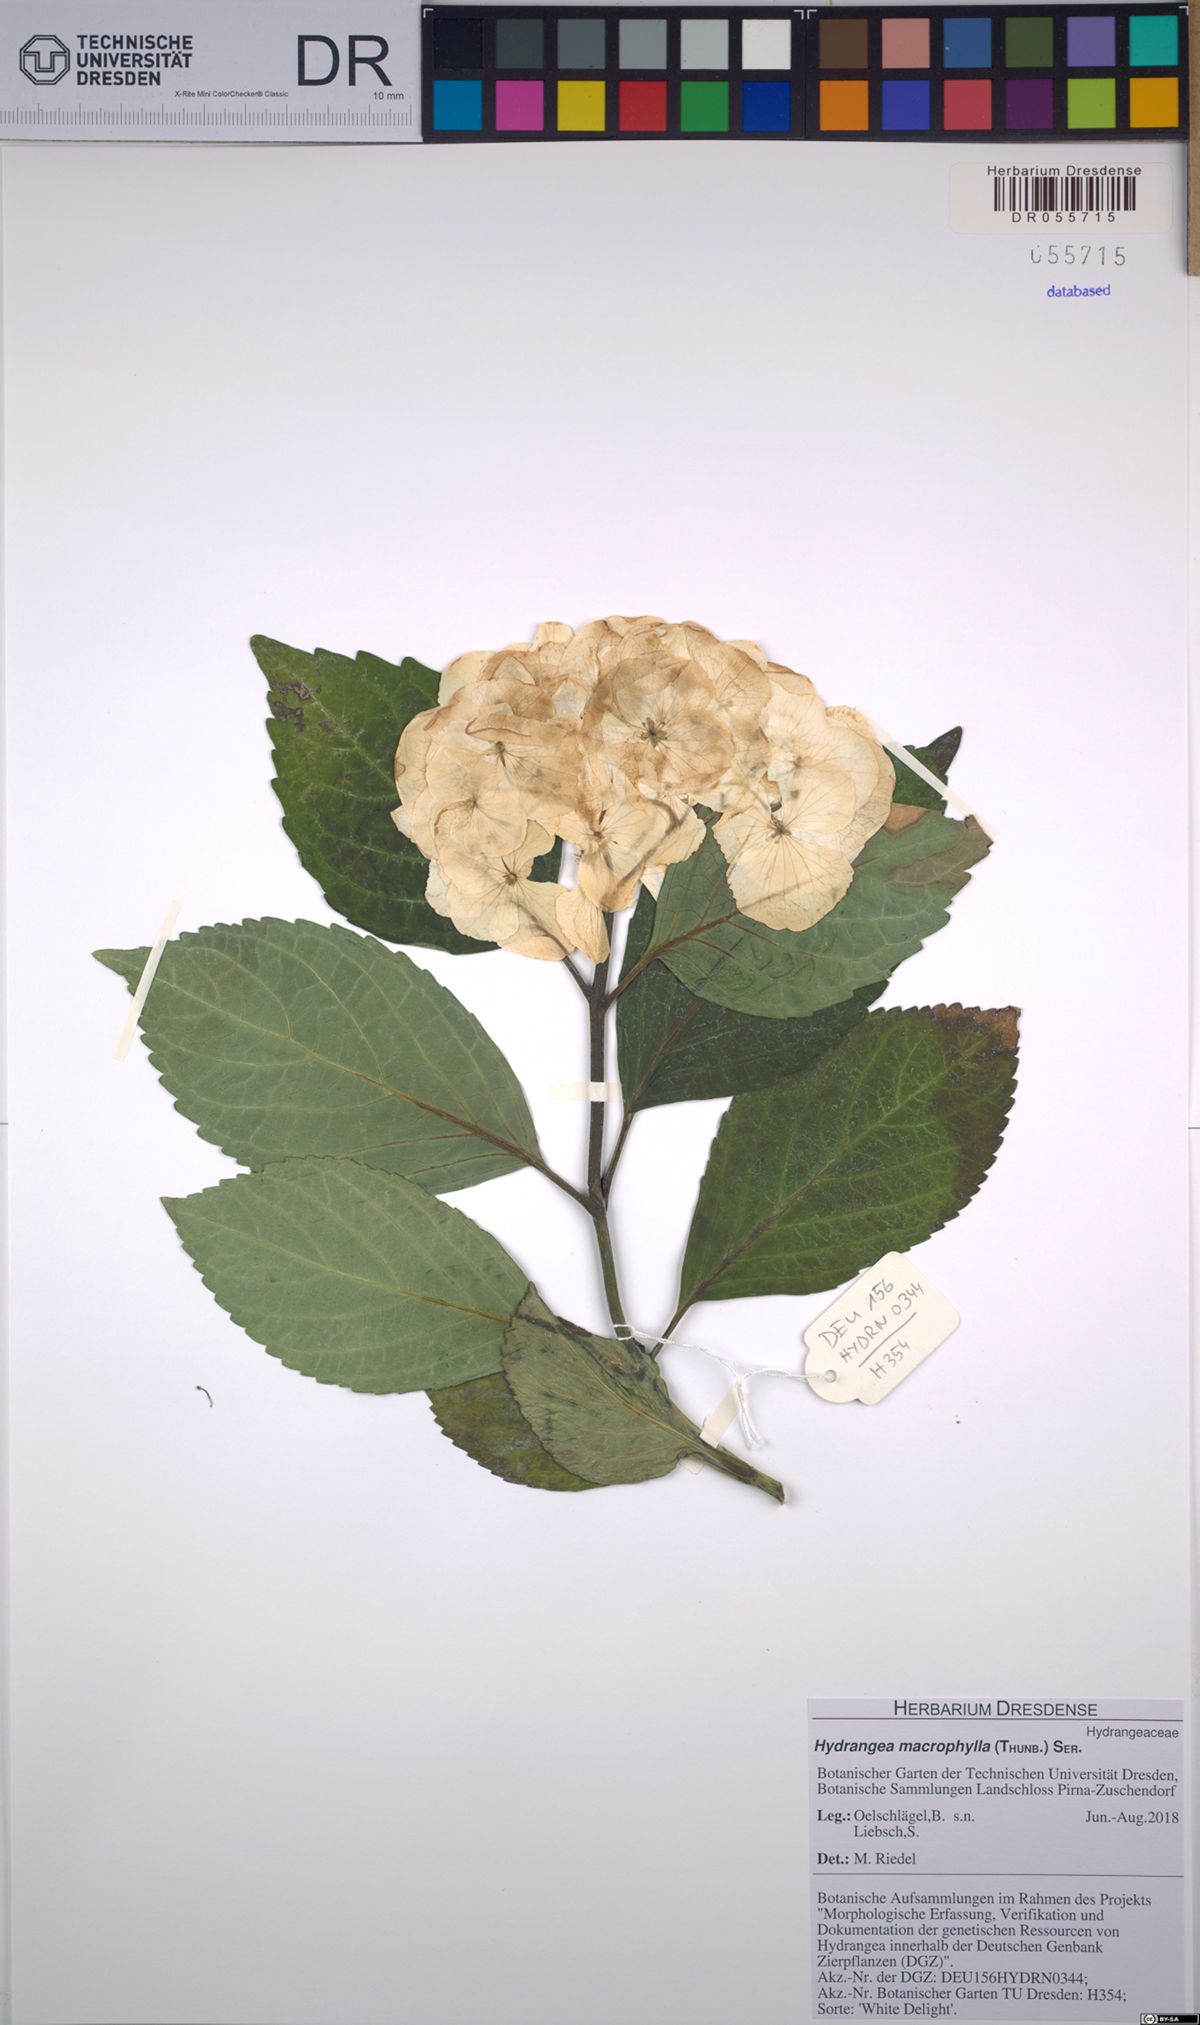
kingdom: Plantae
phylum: Tracheophyta
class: Magnoliopsida
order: Cornales
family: Hydrangeaceae
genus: Hydrangea
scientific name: Hydrangea macrophylla
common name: Hydrangea
